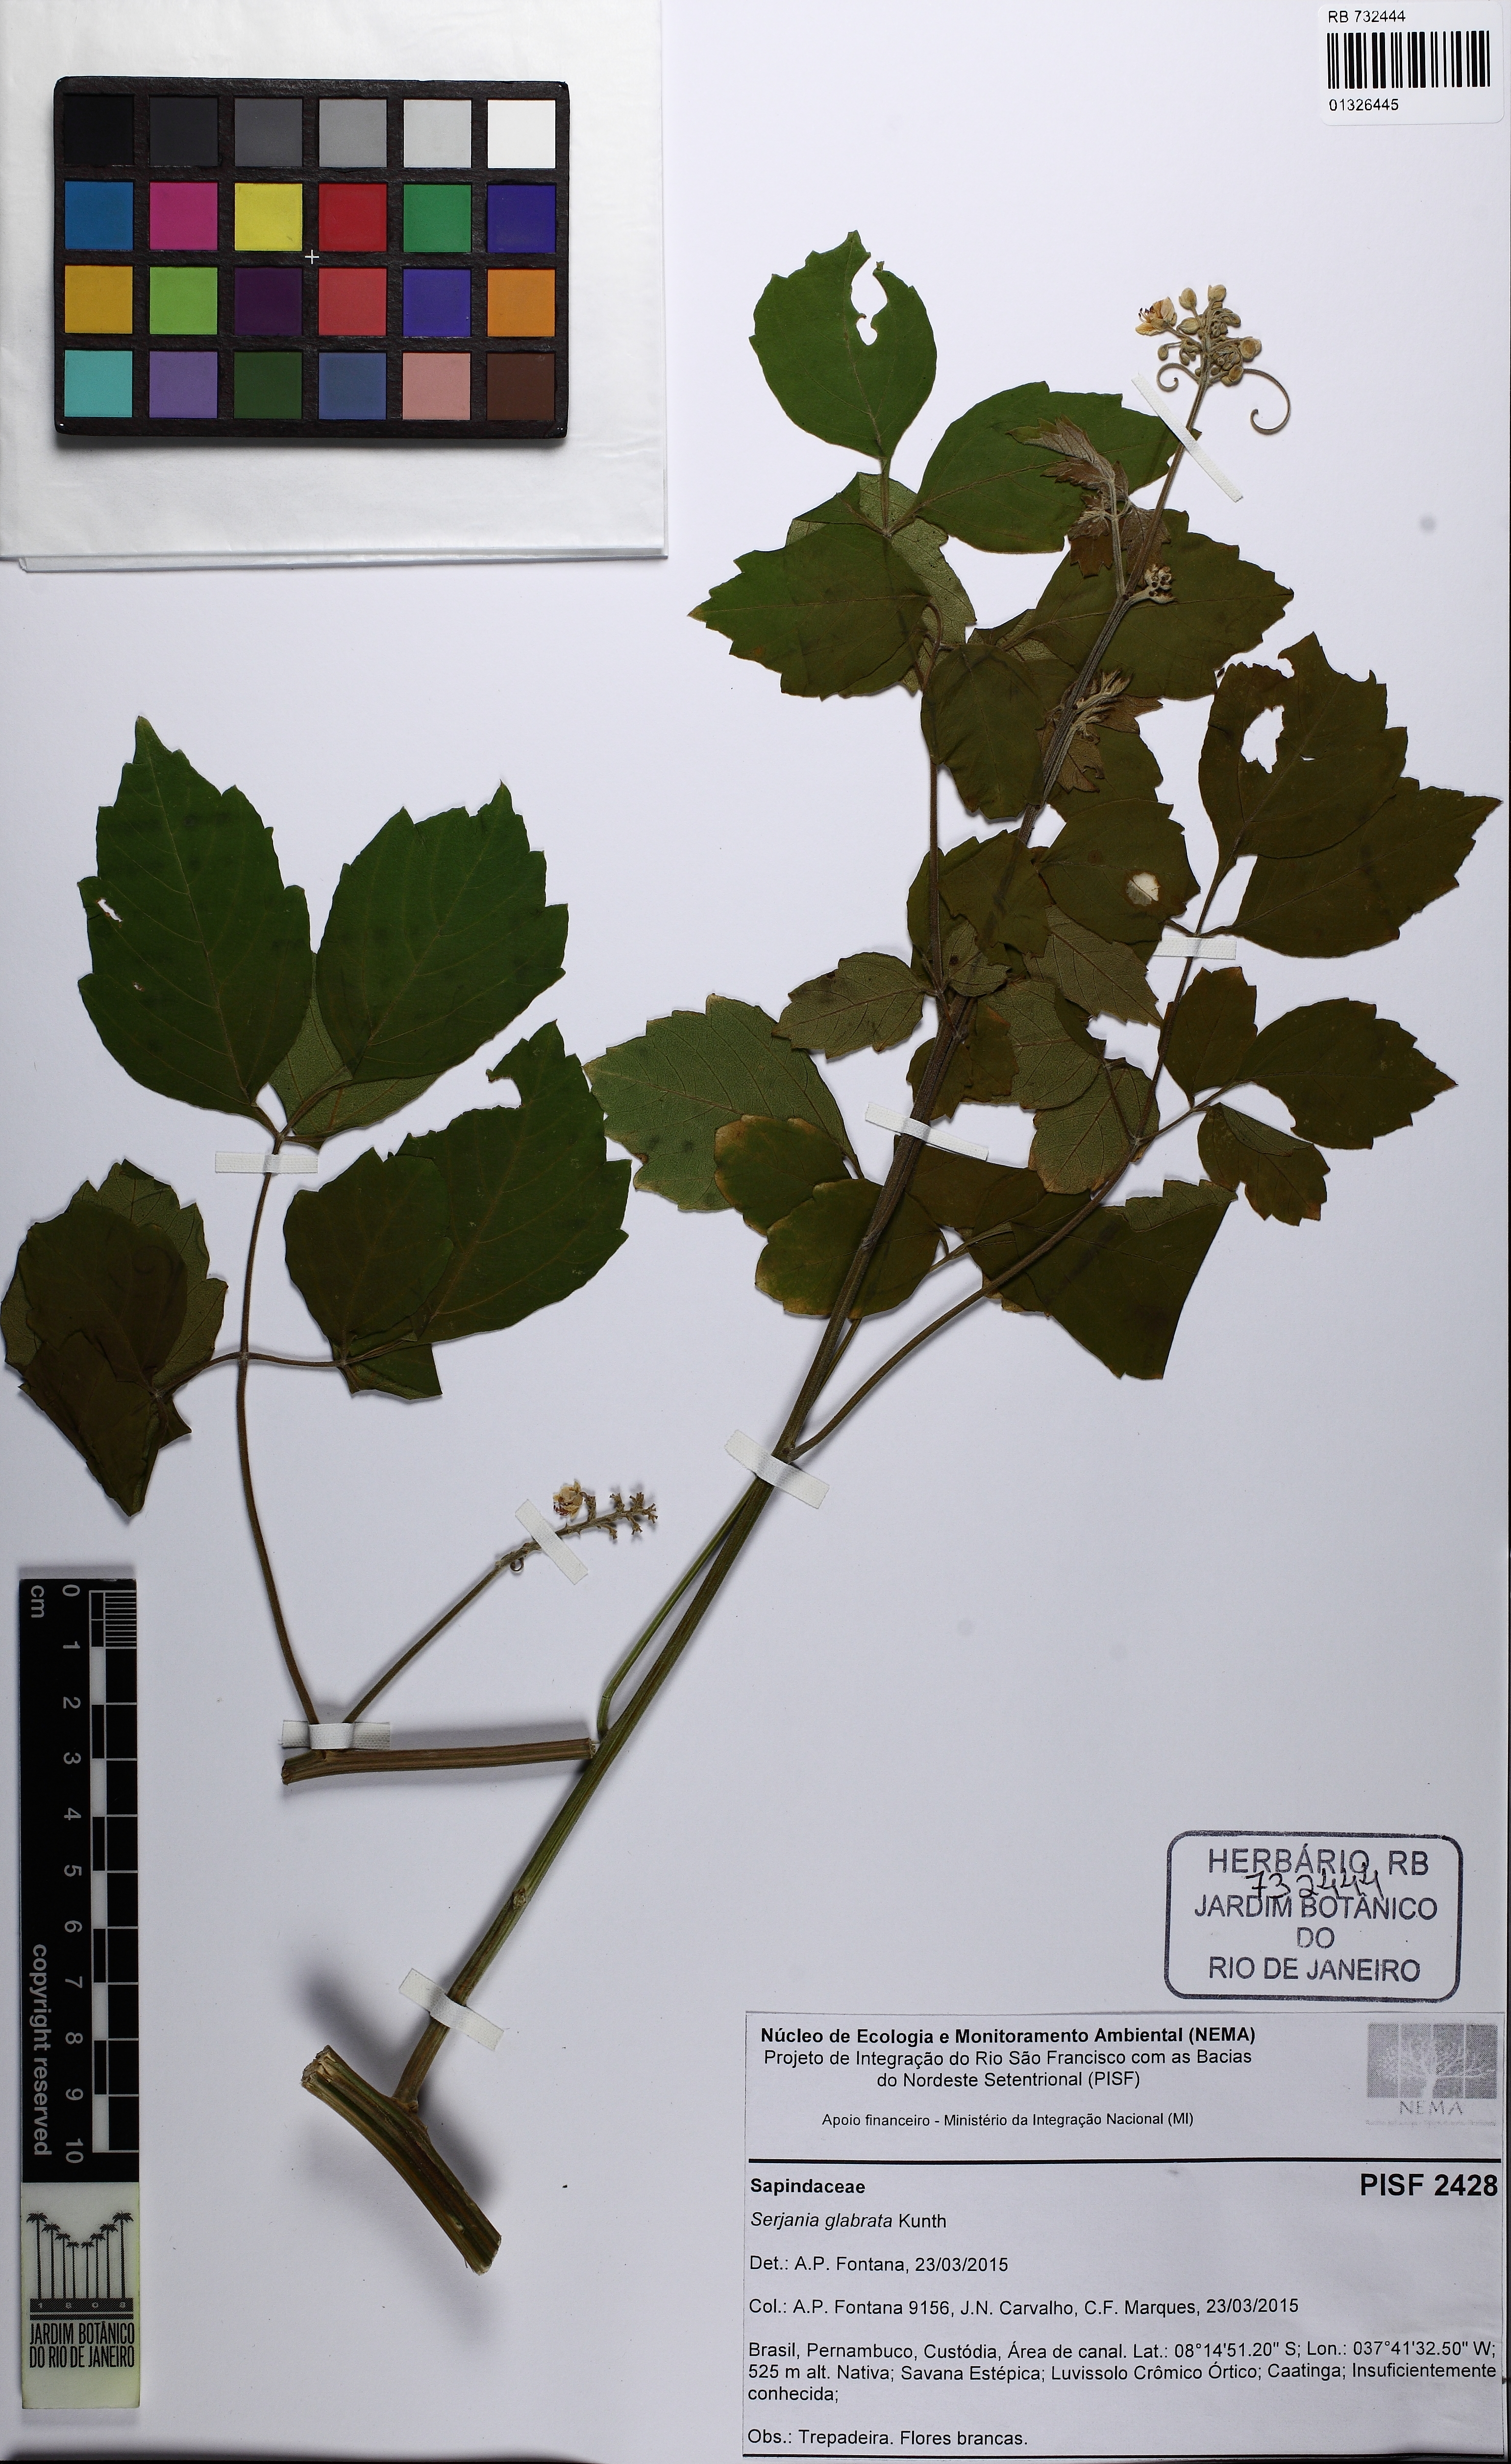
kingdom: Plantae
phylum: Tracheophyta
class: Magnoliopsida
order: Sapindales
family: Sapindaceae
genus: Serjania
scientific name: Serjania glabrata
